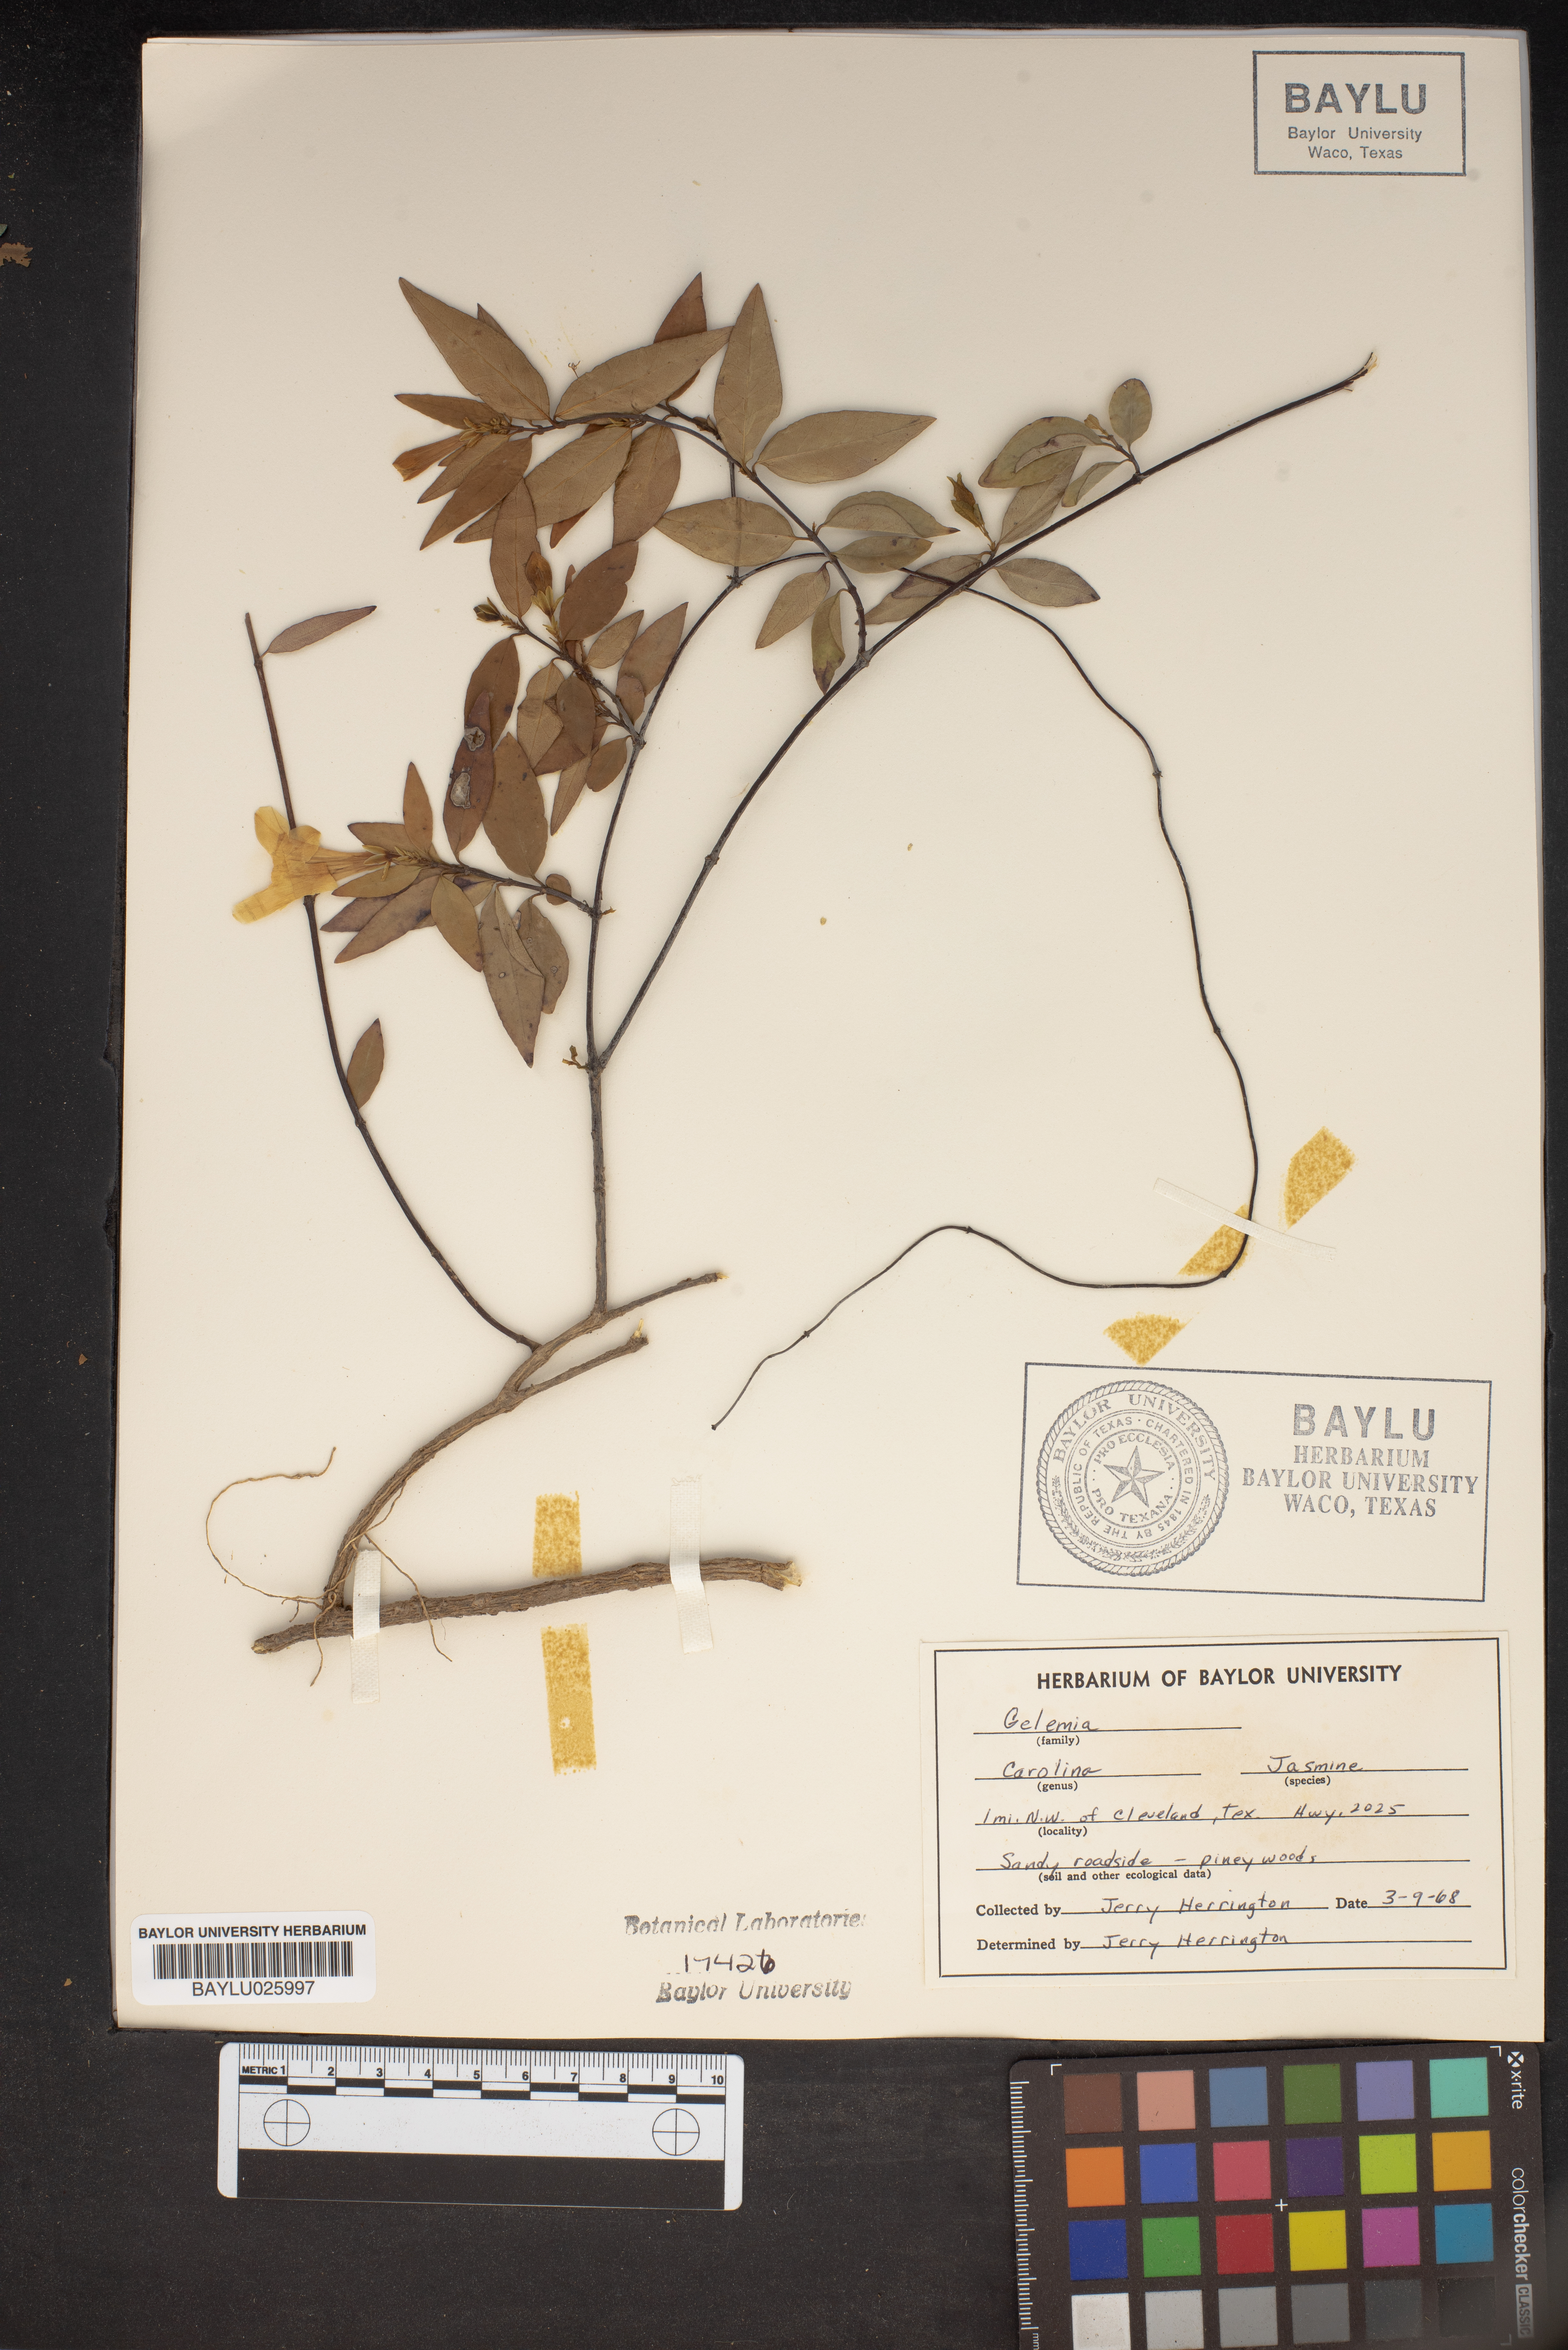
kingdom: Animalia
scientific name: Animalia
